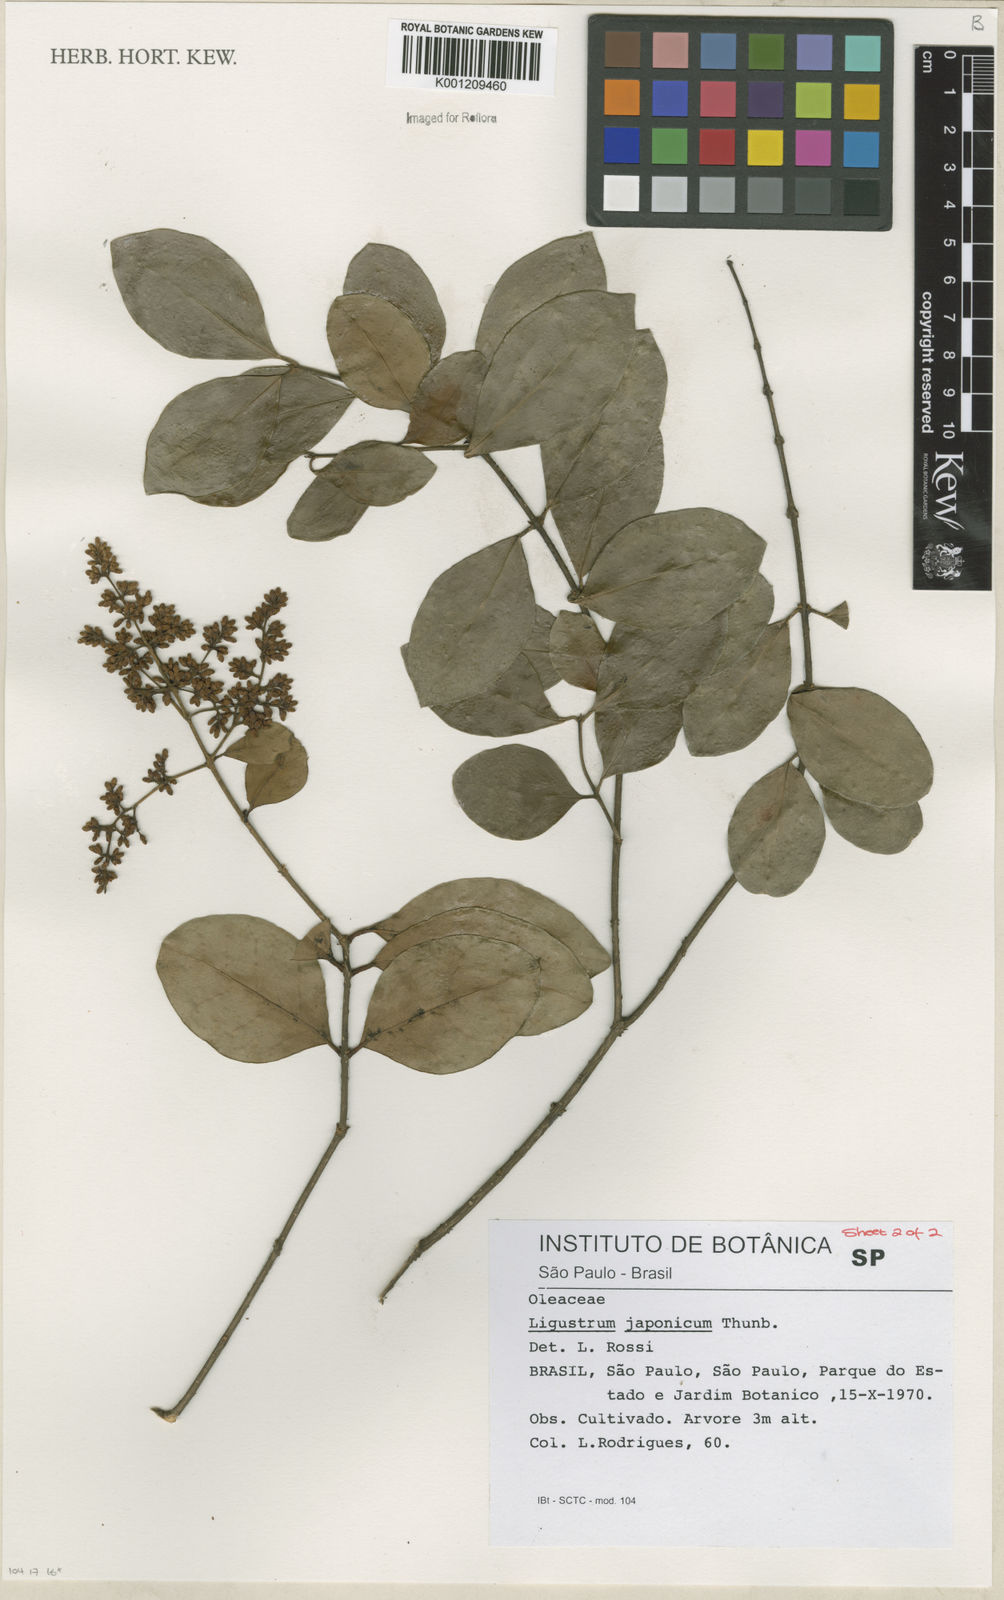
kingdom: Plantae
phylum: Tracheophyta
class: Magnoliopsida
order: Lamiales
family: Oleaceae
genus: Ligustrum
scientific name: Ligustrum japonicum
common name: Japanese privet
